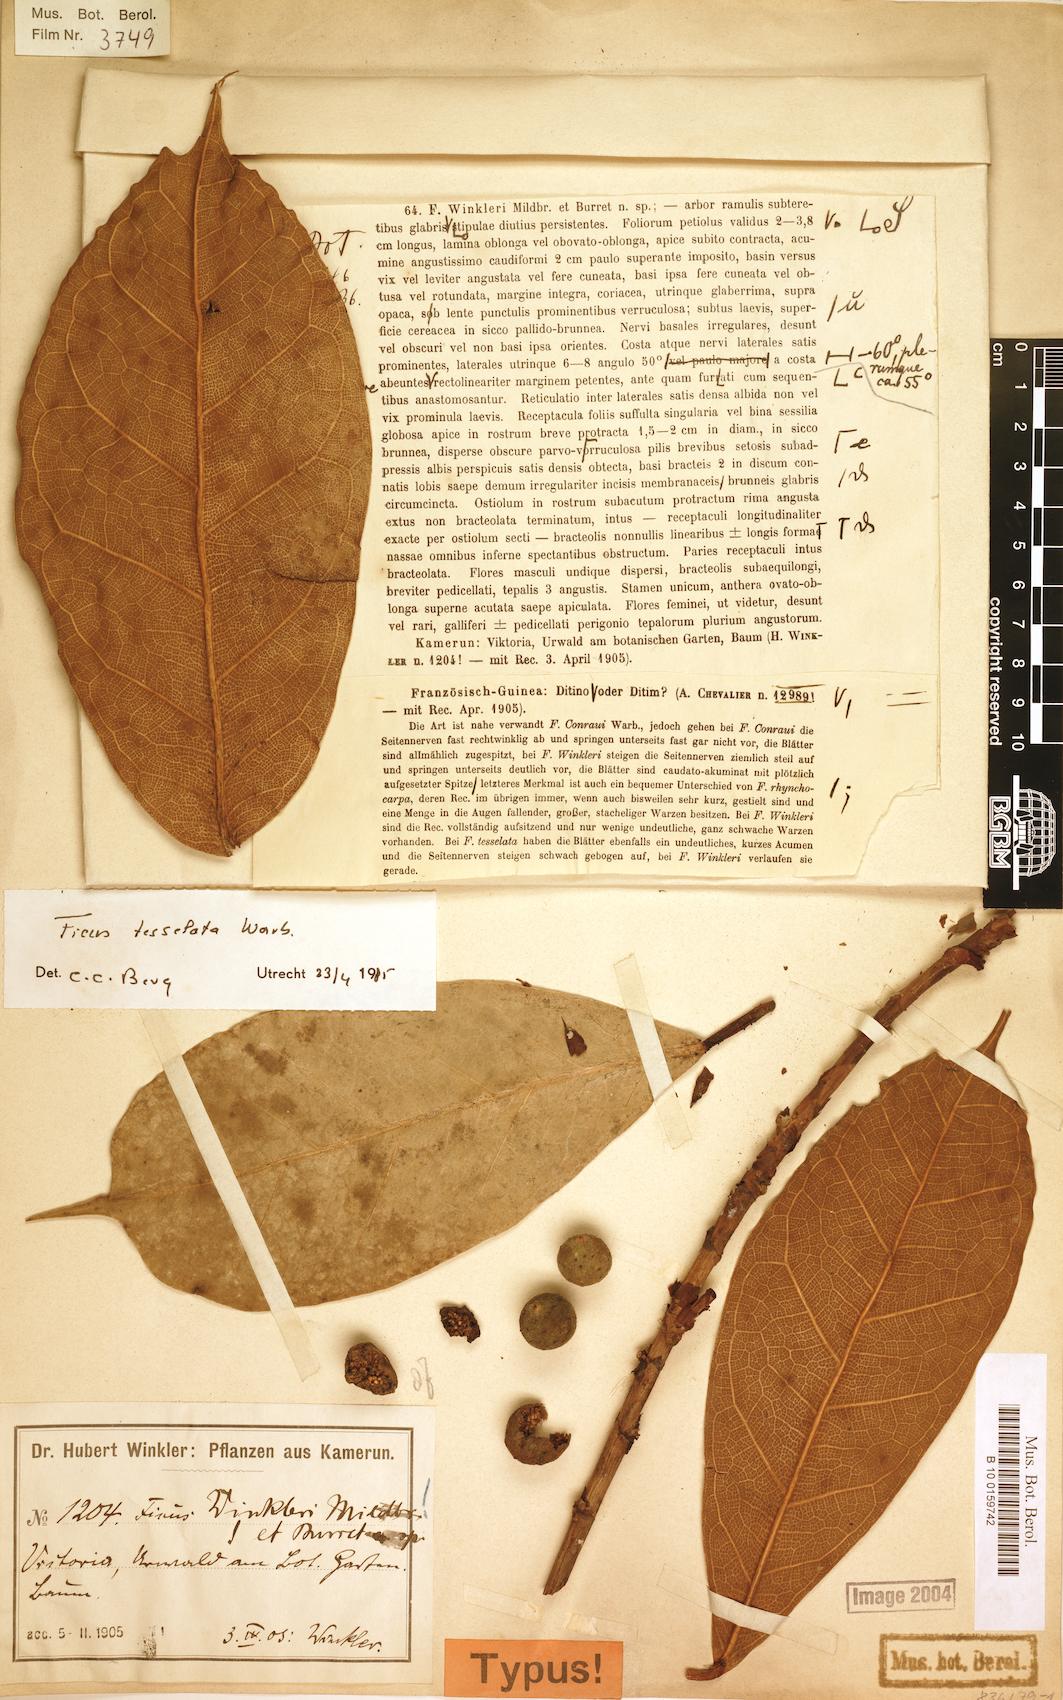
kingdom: Plantae
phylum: Tracheophyta
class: Magnoliopsida
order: Rosales
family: Moraceae
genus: Ficus
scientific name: Ficus tesselata
